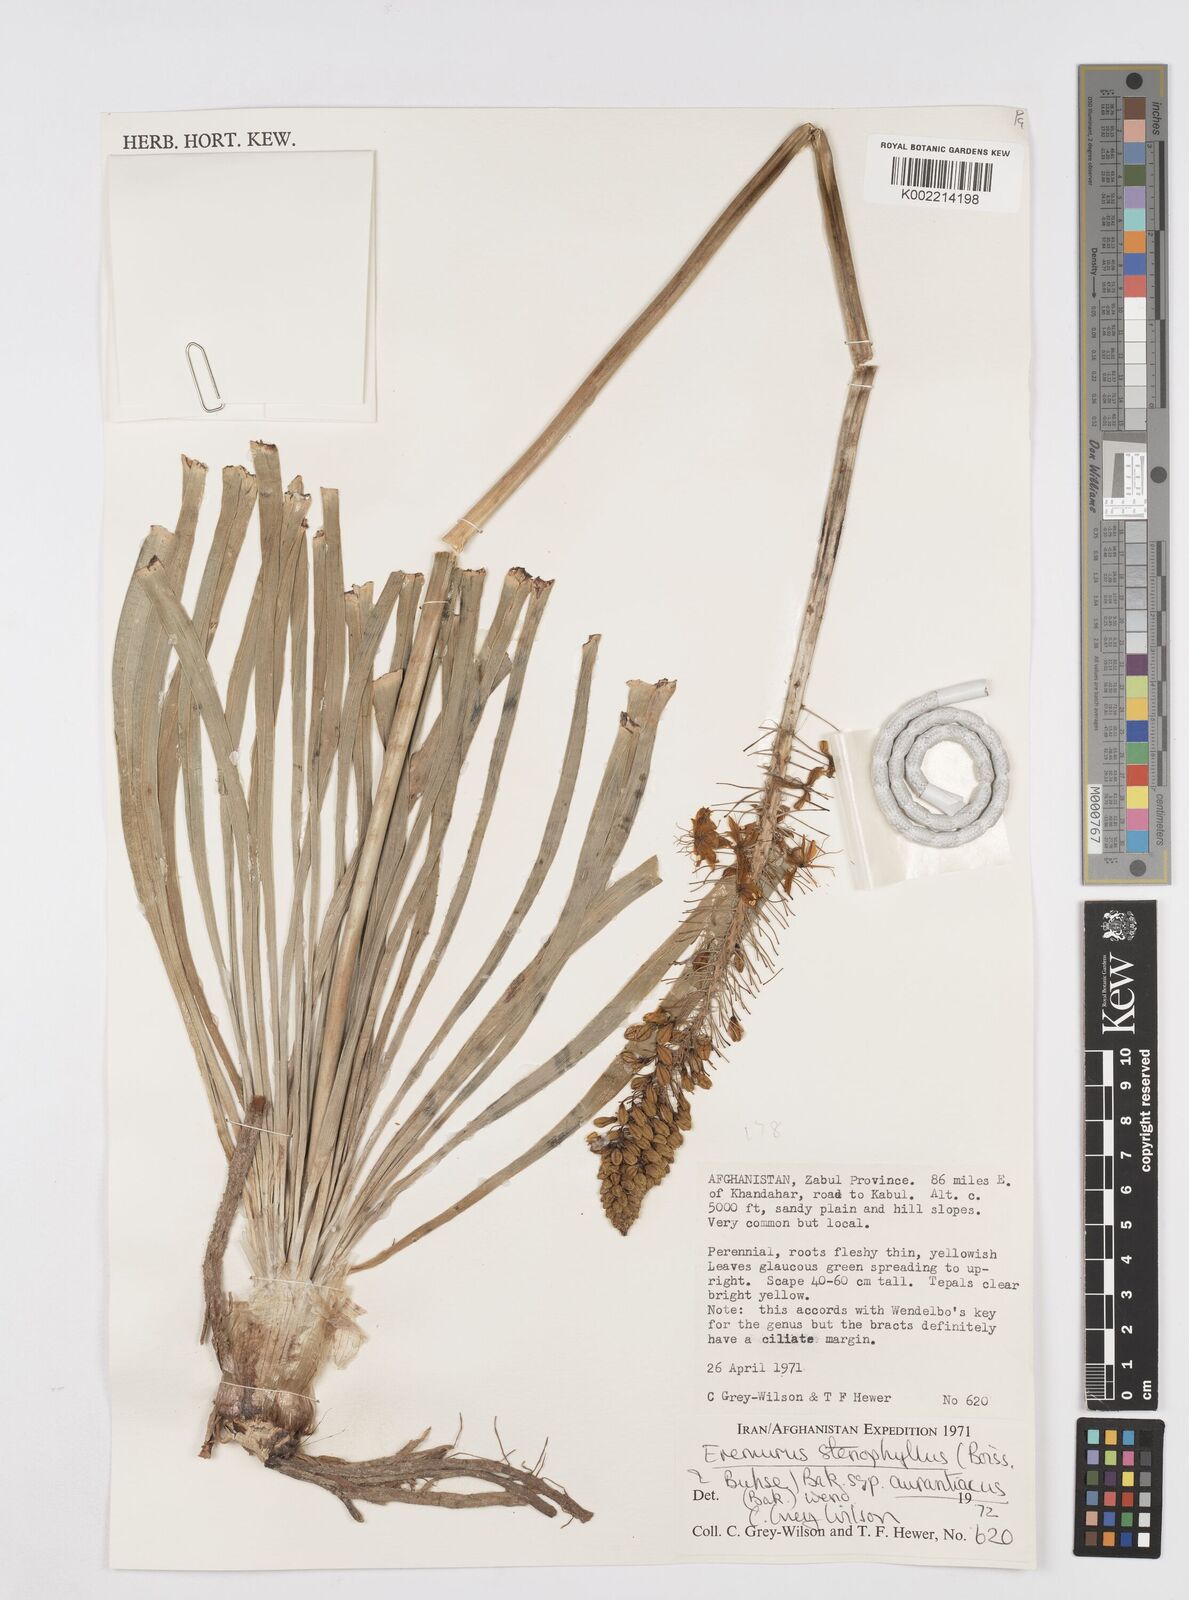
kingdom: Plantae
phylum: Tracheophyta
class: Liliopsida
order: Asparagales
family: Asphodelaceae
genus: Eremurus
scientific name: Eremurus stenophyllus
